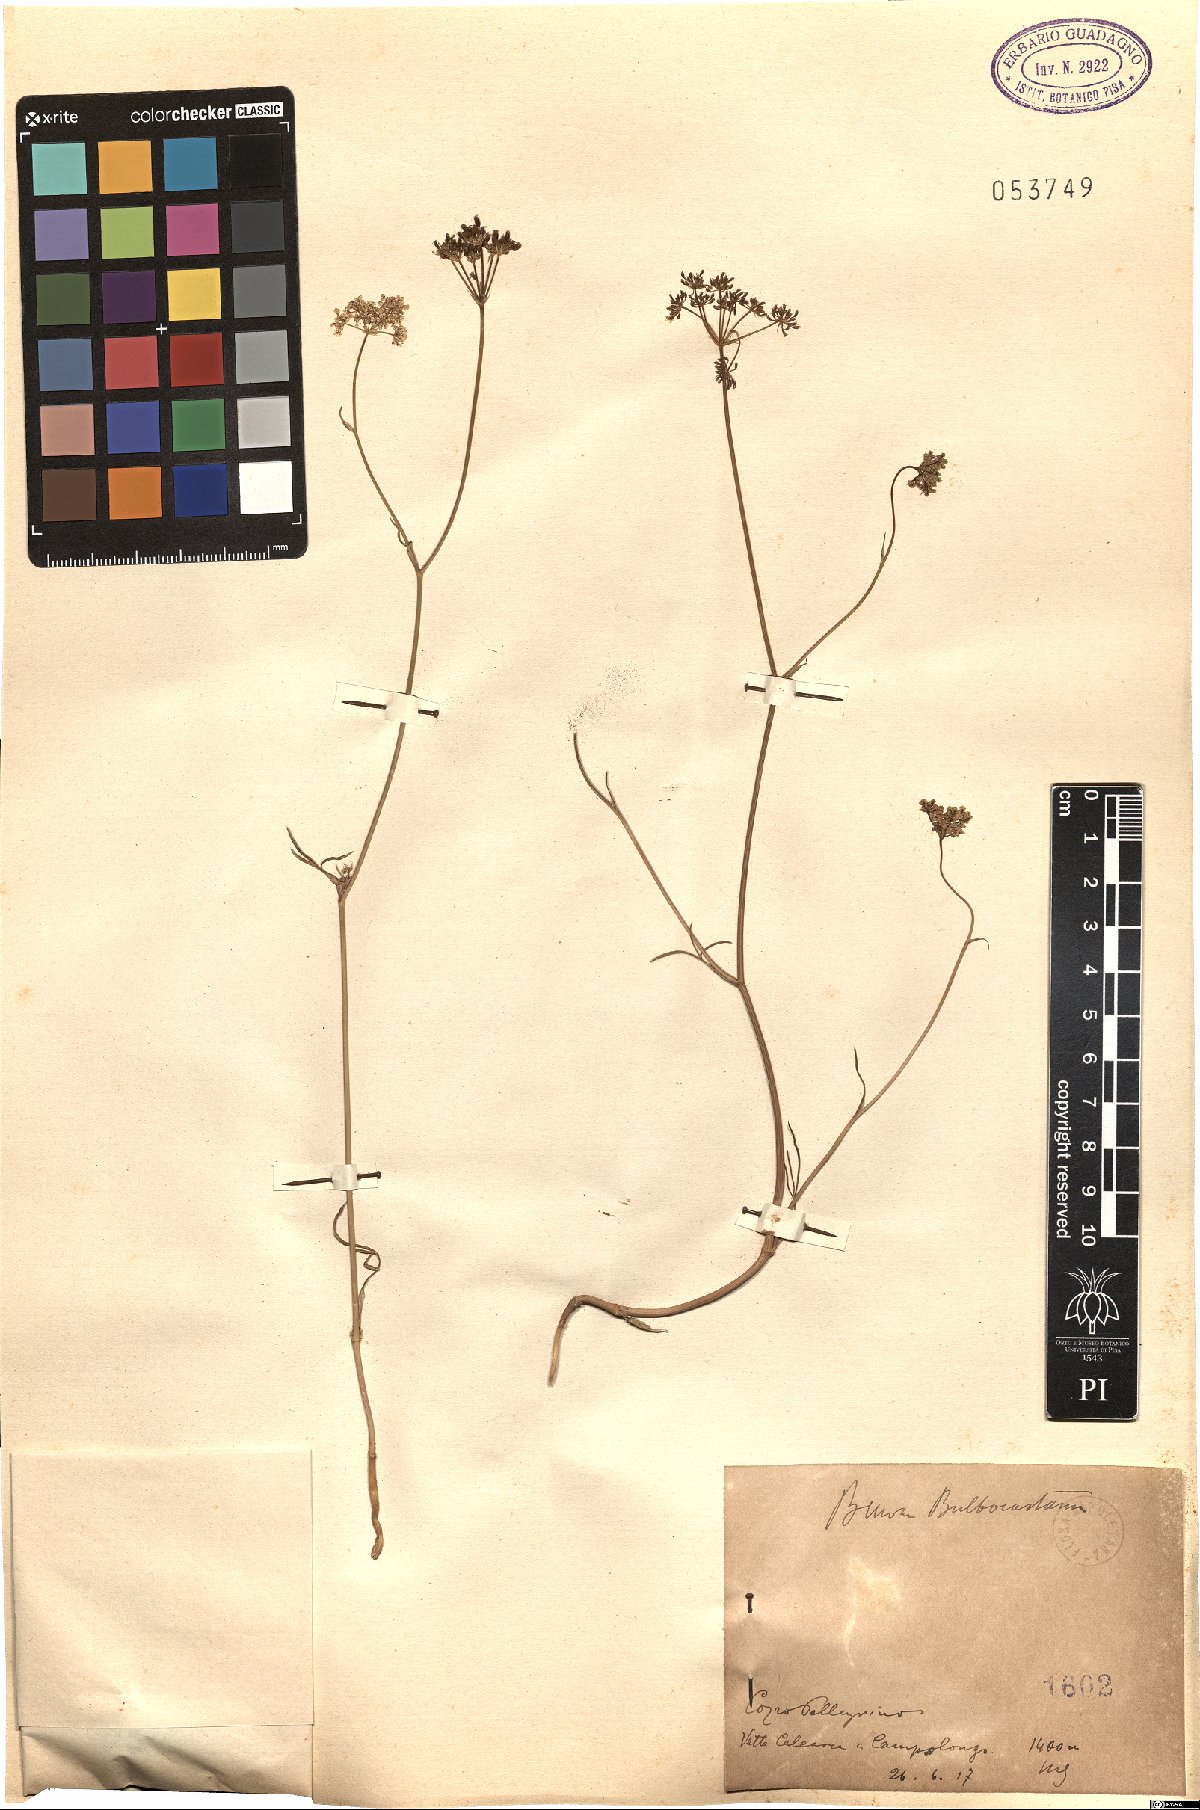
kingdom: Plantae
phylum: Tracheophyta
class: Magnoliopsida
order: Apiales
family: Apiaceae
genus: Bunium
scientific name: Bunium bulbocastanum
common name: Great pignut
